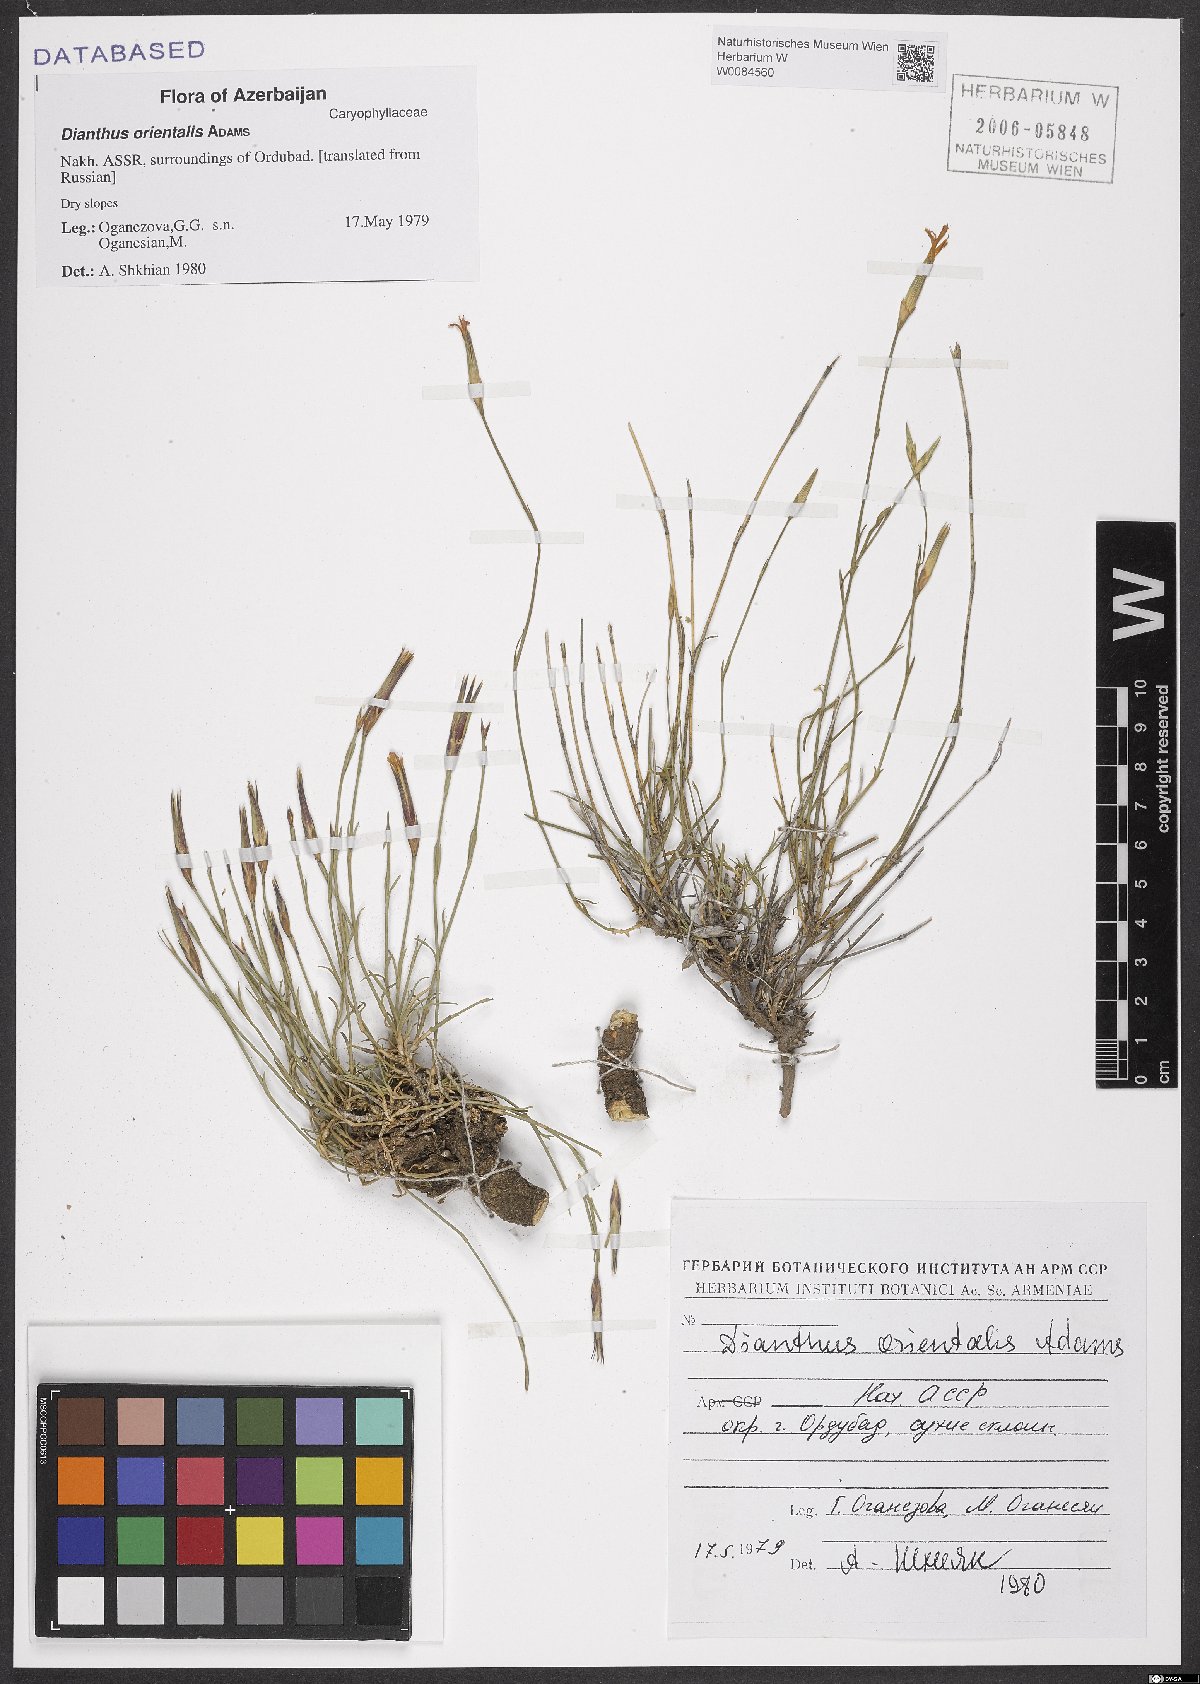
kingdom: Plantae
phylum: Tracheophyta
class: Magnoliopsida
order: Caryophyllales
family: Caryophyllaceae
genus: Dianthus
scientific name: Dianthus orientalis
